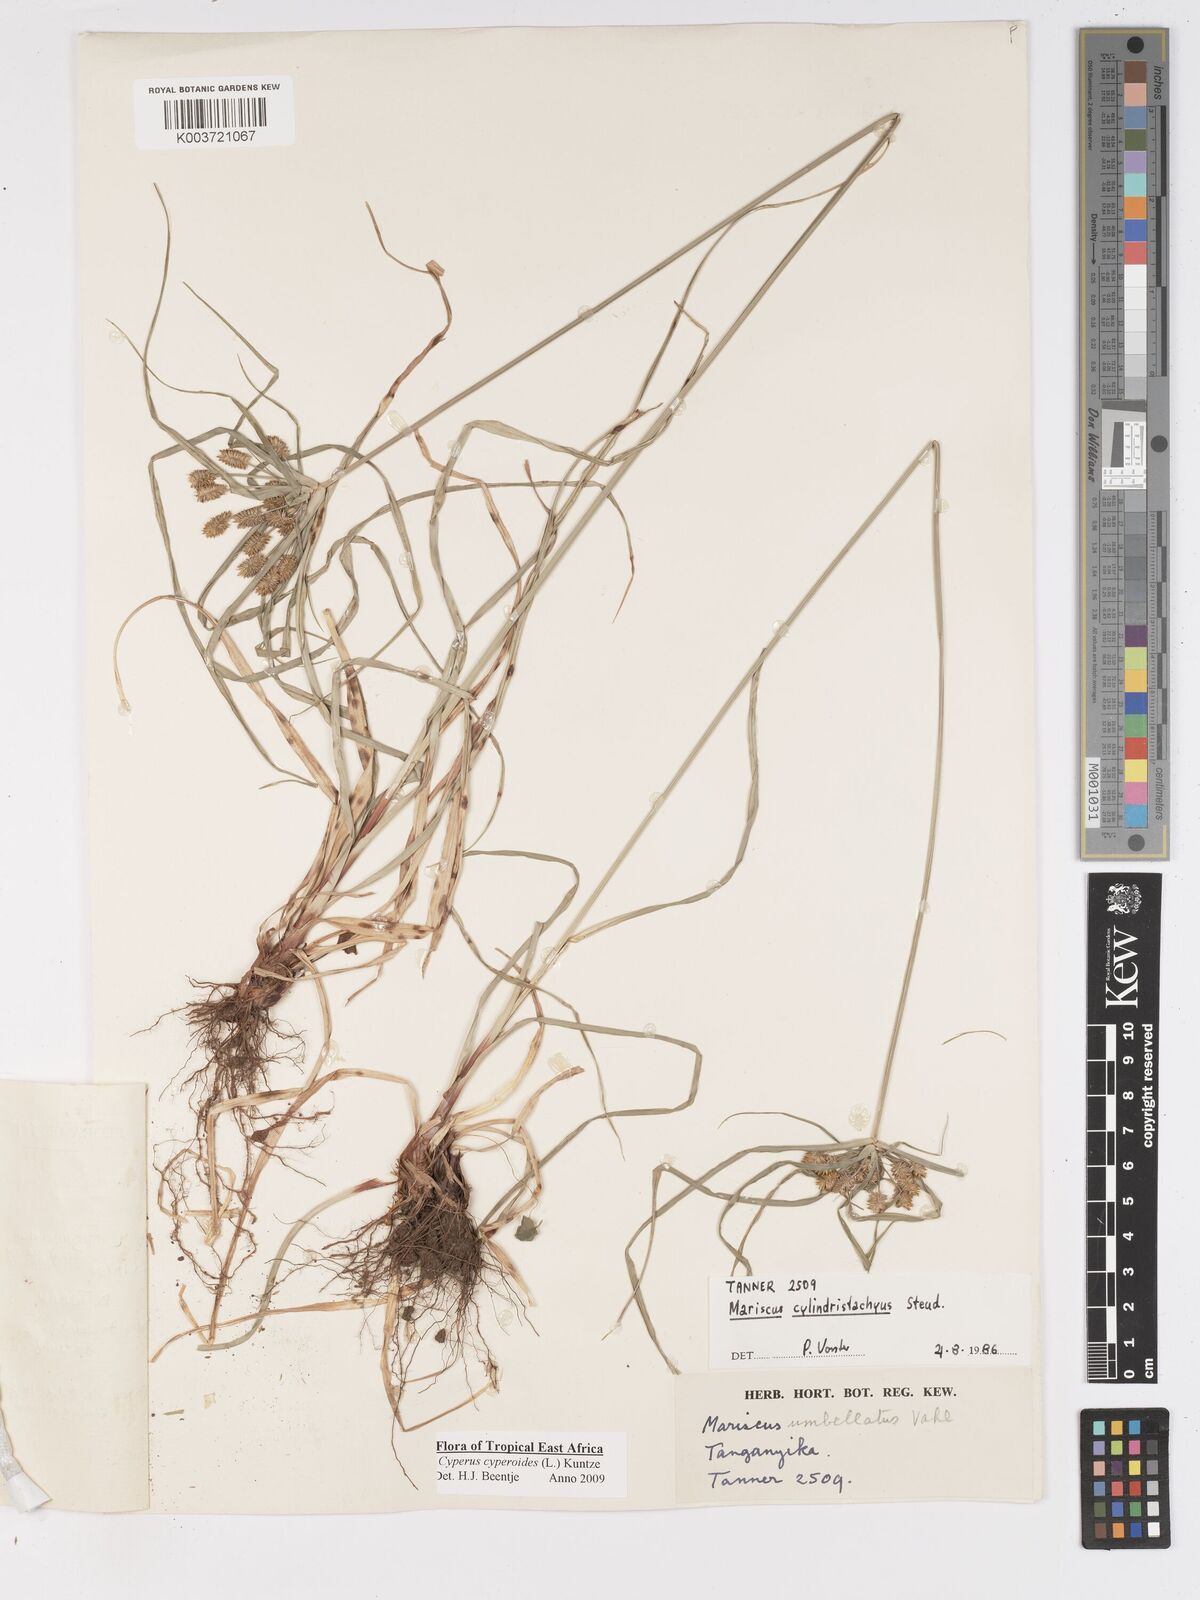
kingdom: Plantae
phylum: Tracheophyta
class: Liliopsida
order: Poales
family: Cyperaceae
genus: Cyperus
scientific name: Cyperus cyperoides
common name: Pacific island flat sedge
